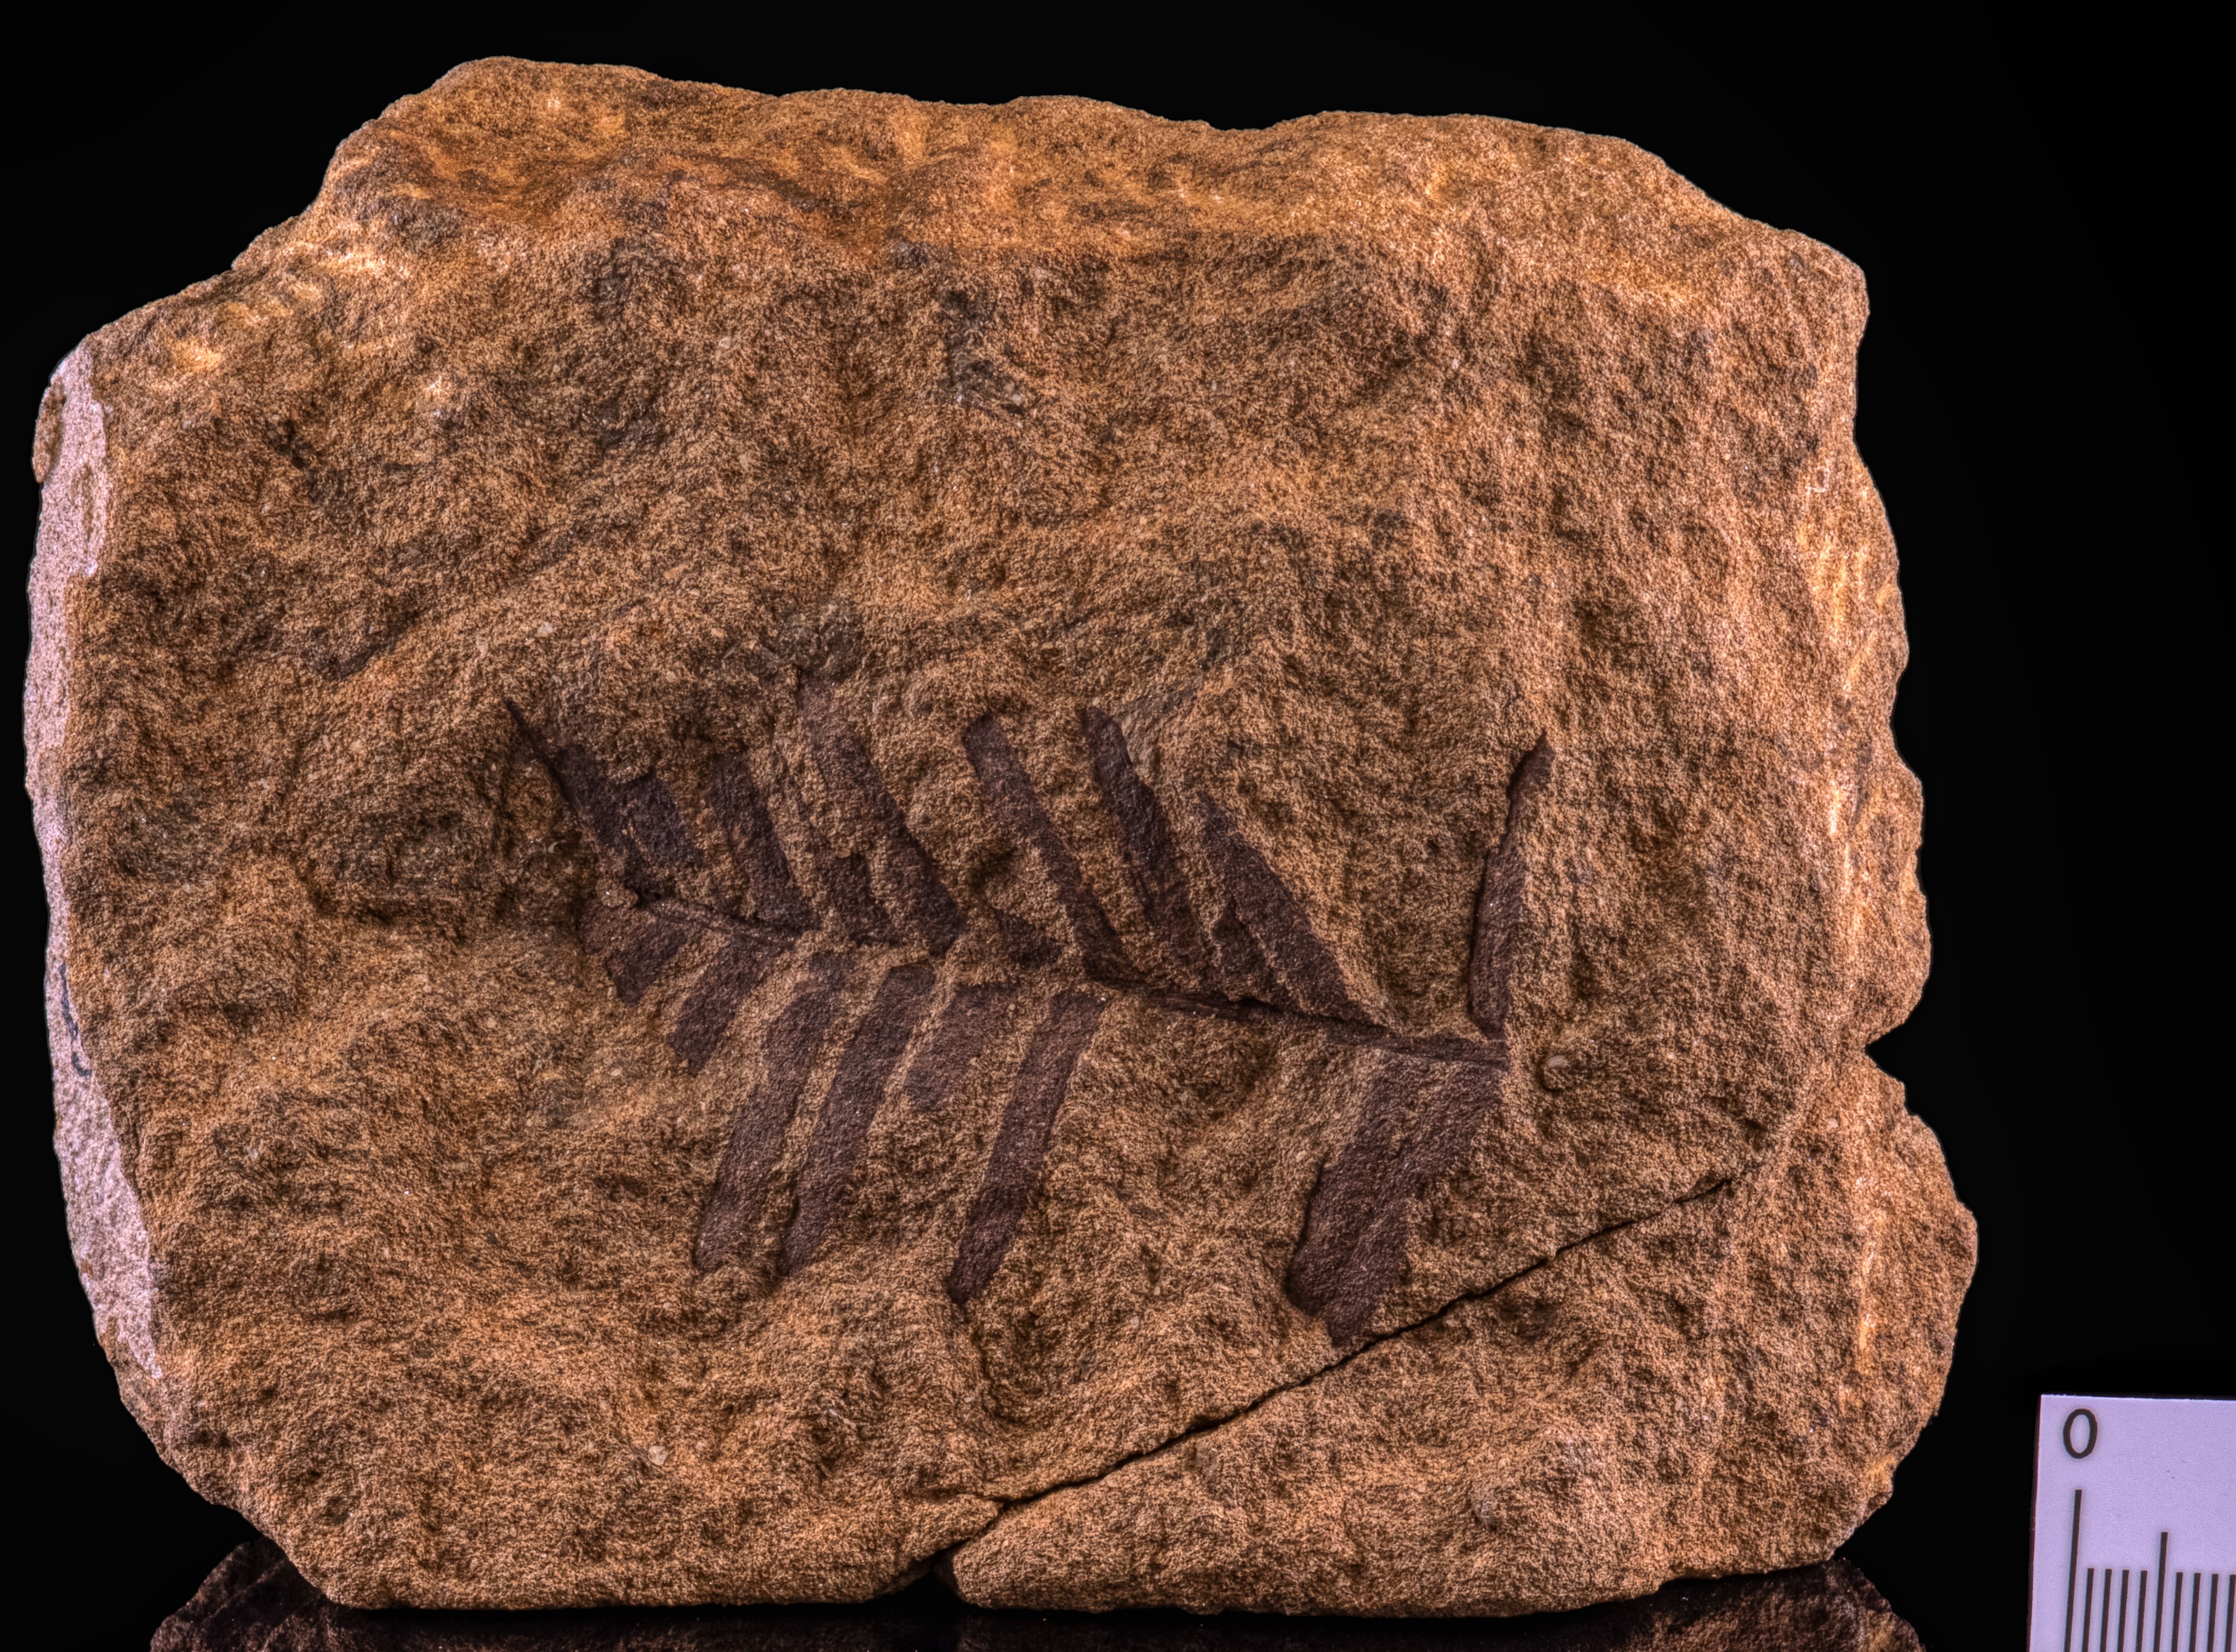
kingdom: Plantae
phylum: Tracheophyta
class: Cycadopsida
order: Cycadales
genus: Ptilophyllum
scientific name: Ptilophyllum Cycadites pecten
